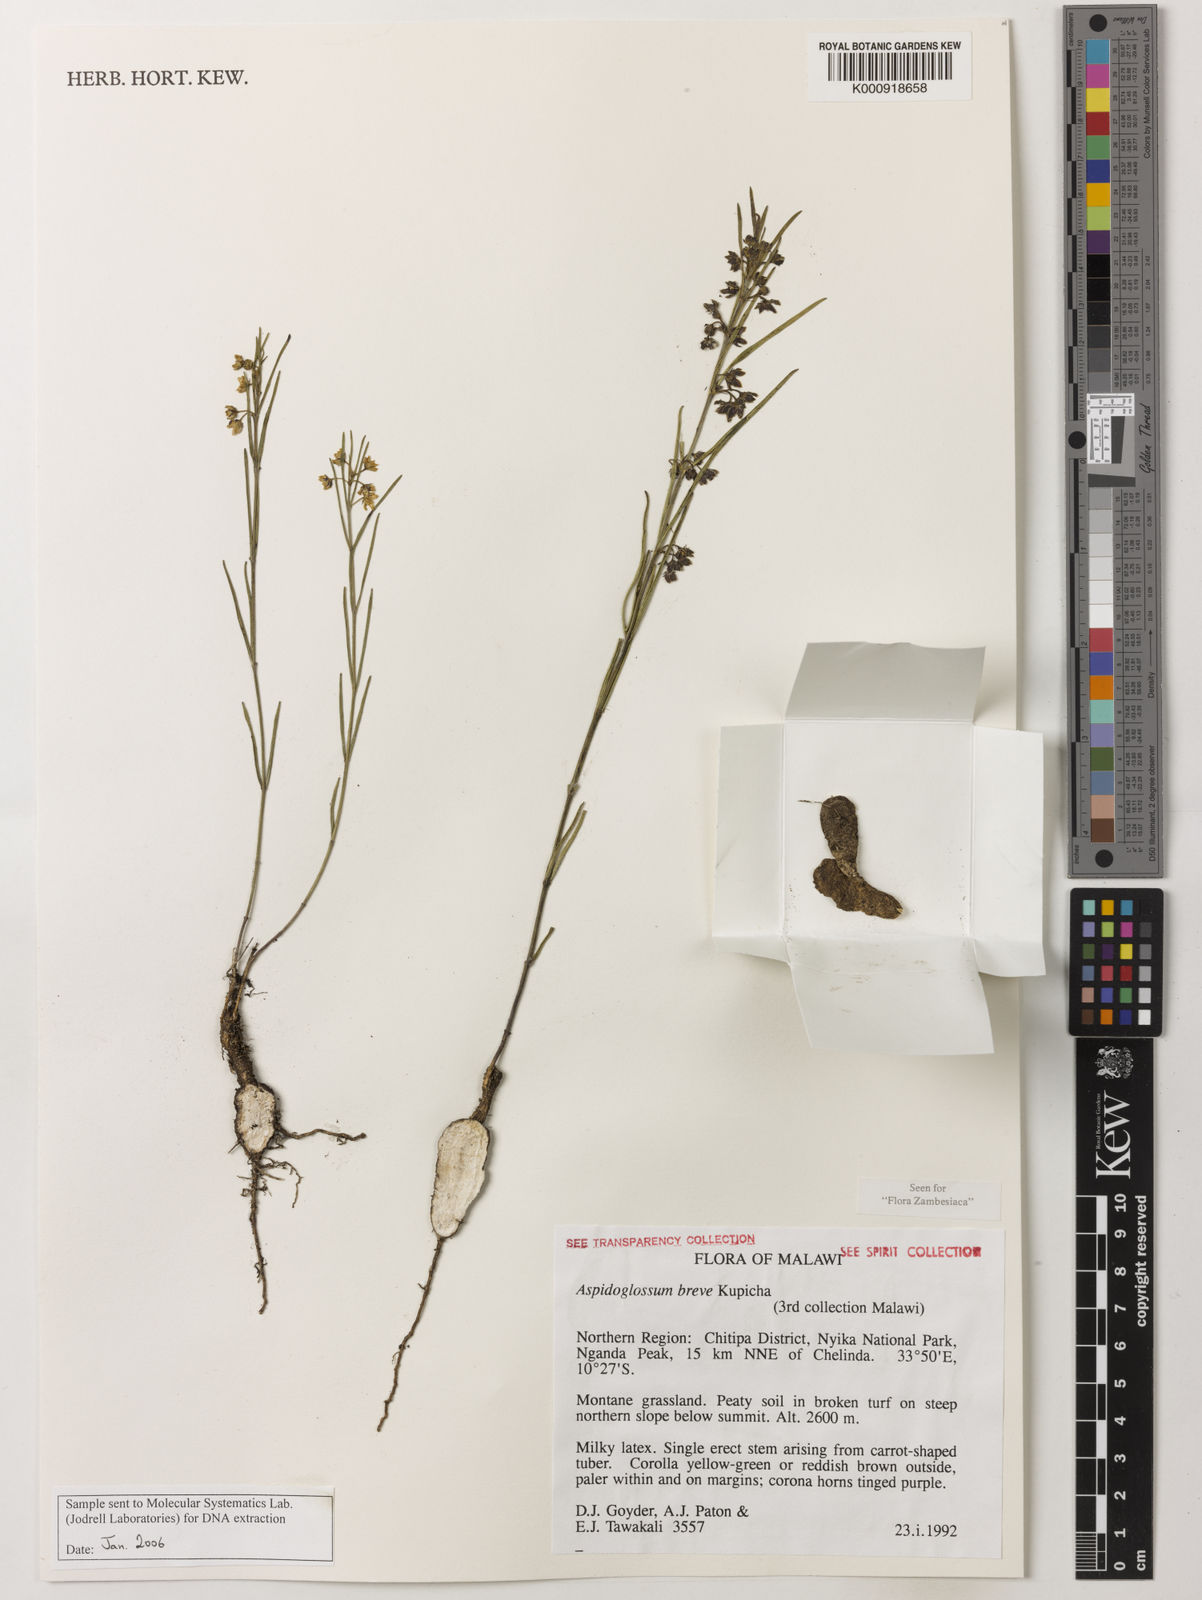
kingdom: Plantae
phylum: Tracheophyta
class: Magnoliopsida
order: Gentianales
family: Apocynaceae
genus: Aspidoglossum
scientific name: Aspidoglossum breve
